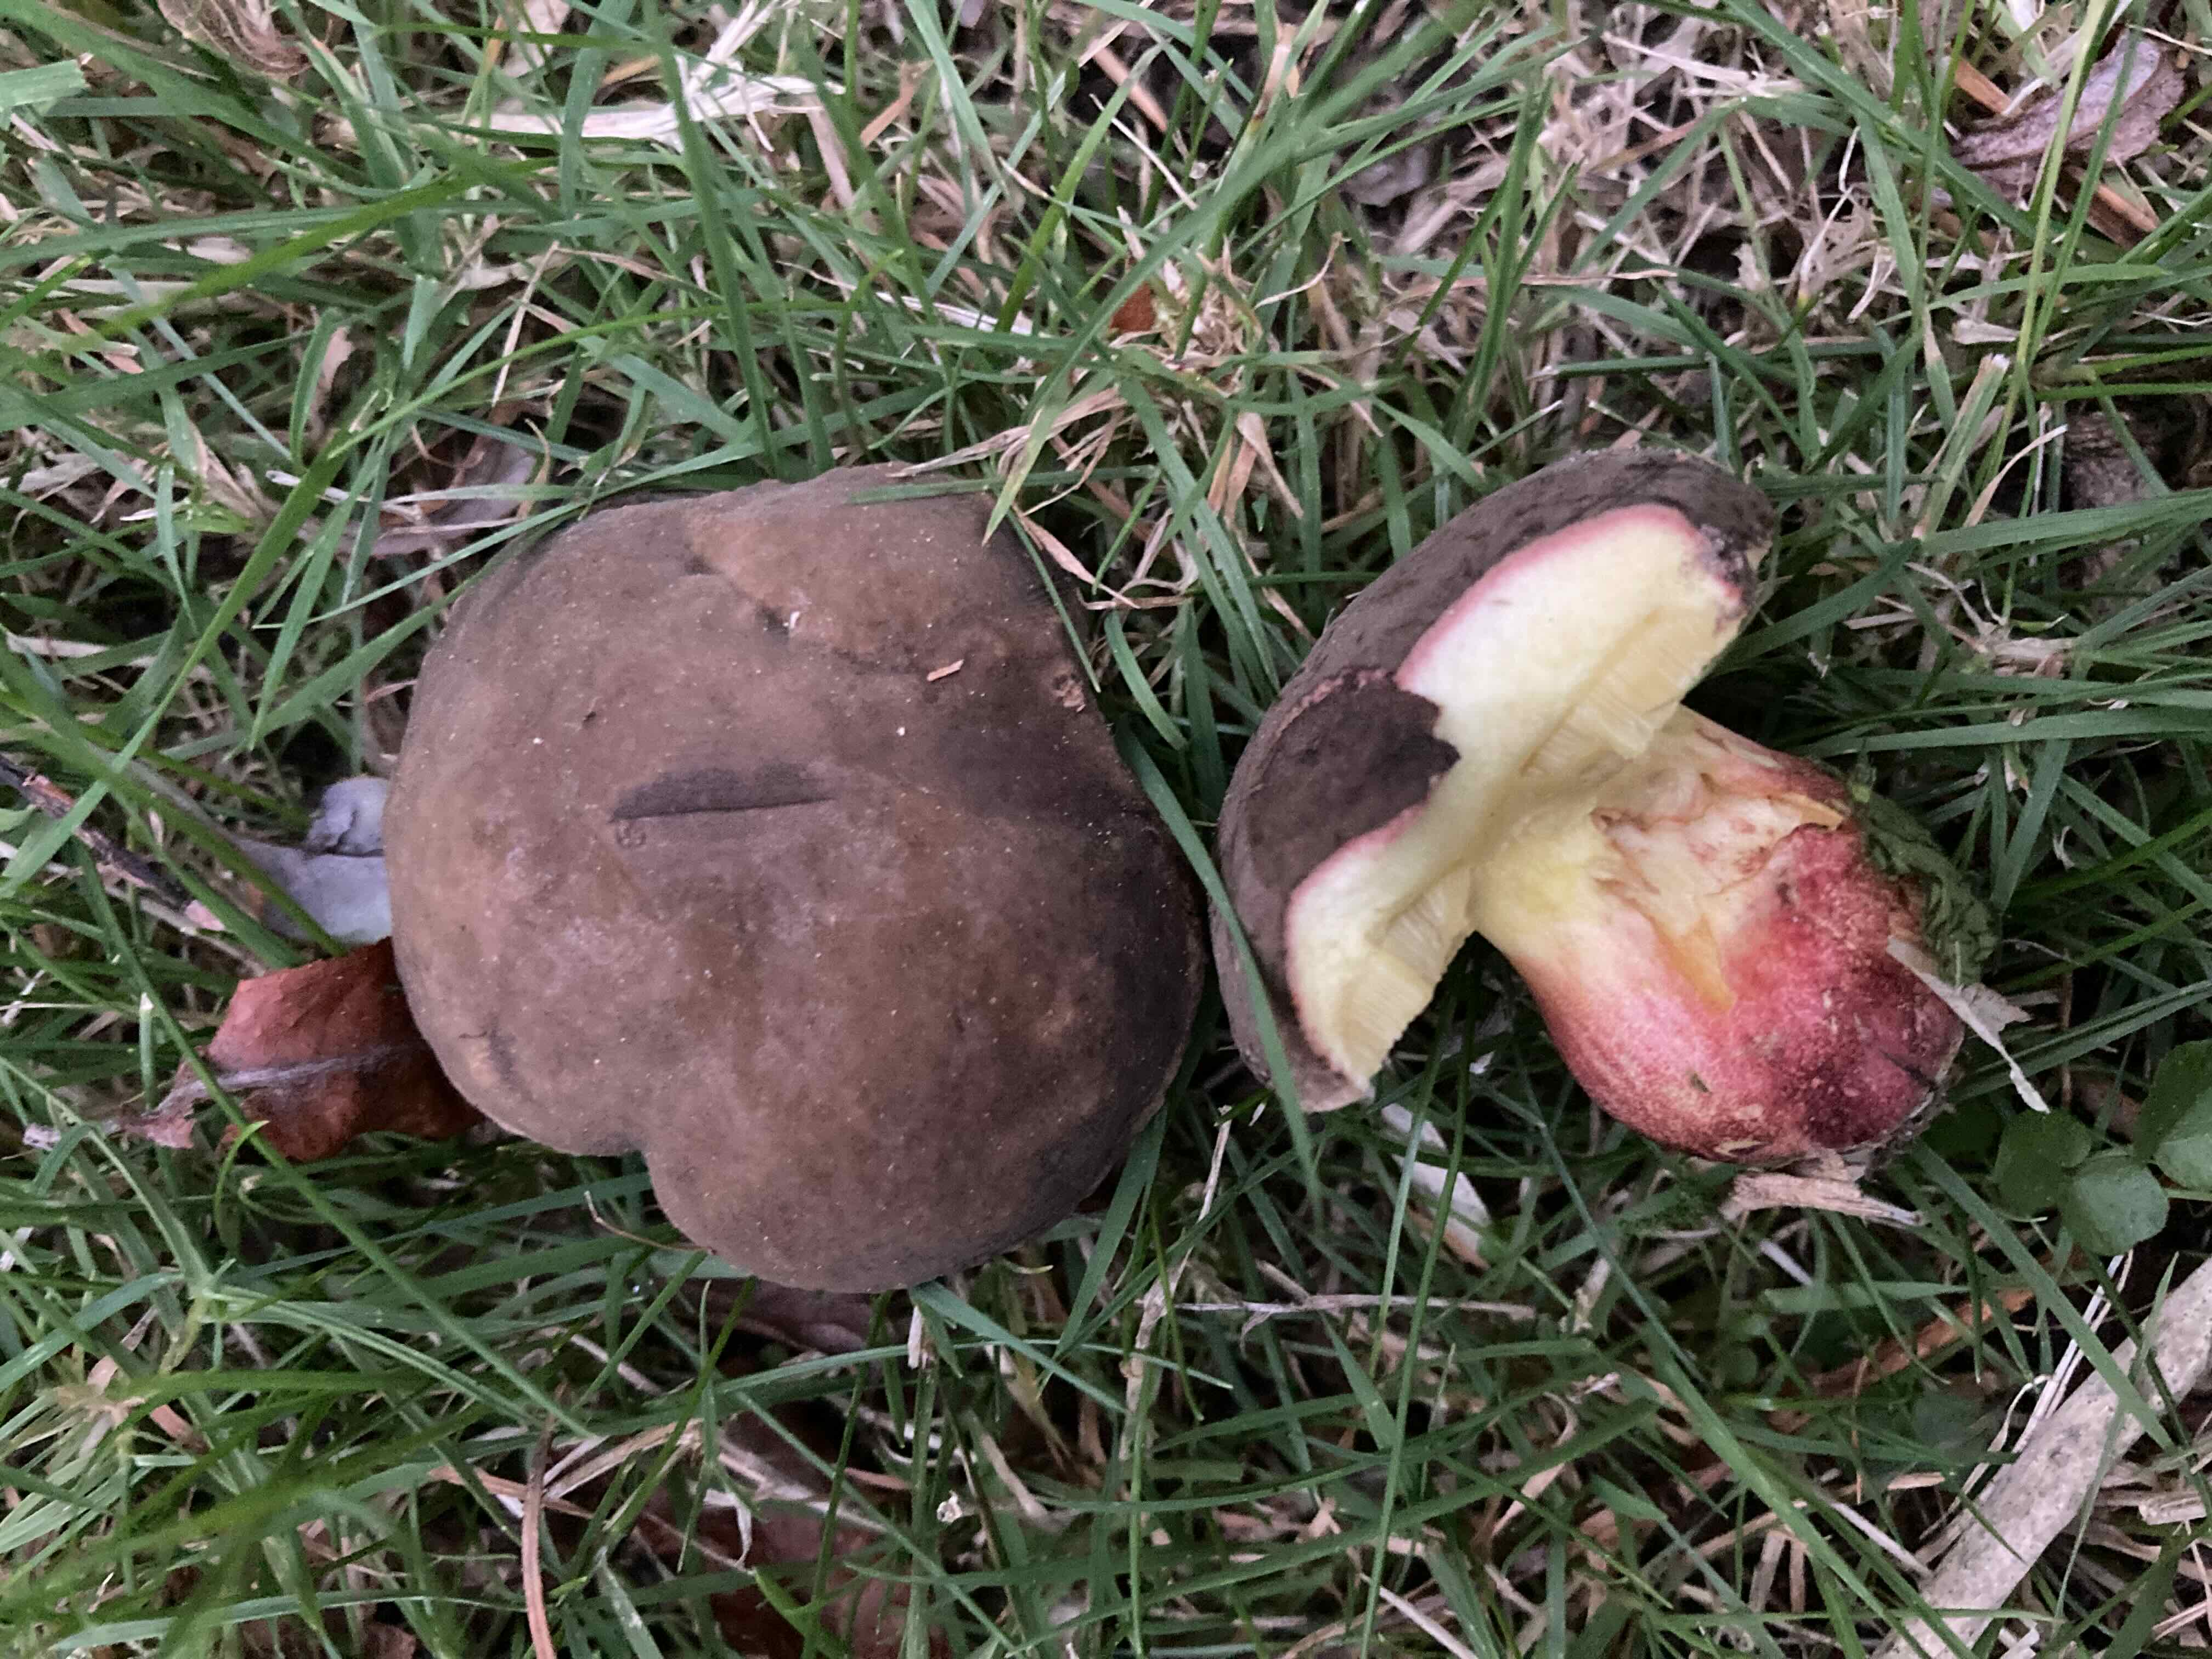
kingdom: Fungi
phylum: Basidiomycota
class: Agaricomycetes
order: Boletales
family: Boletaceae
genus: Xerocomellus
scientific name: Xerocomellus pruinatus
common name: dugget rørhat
